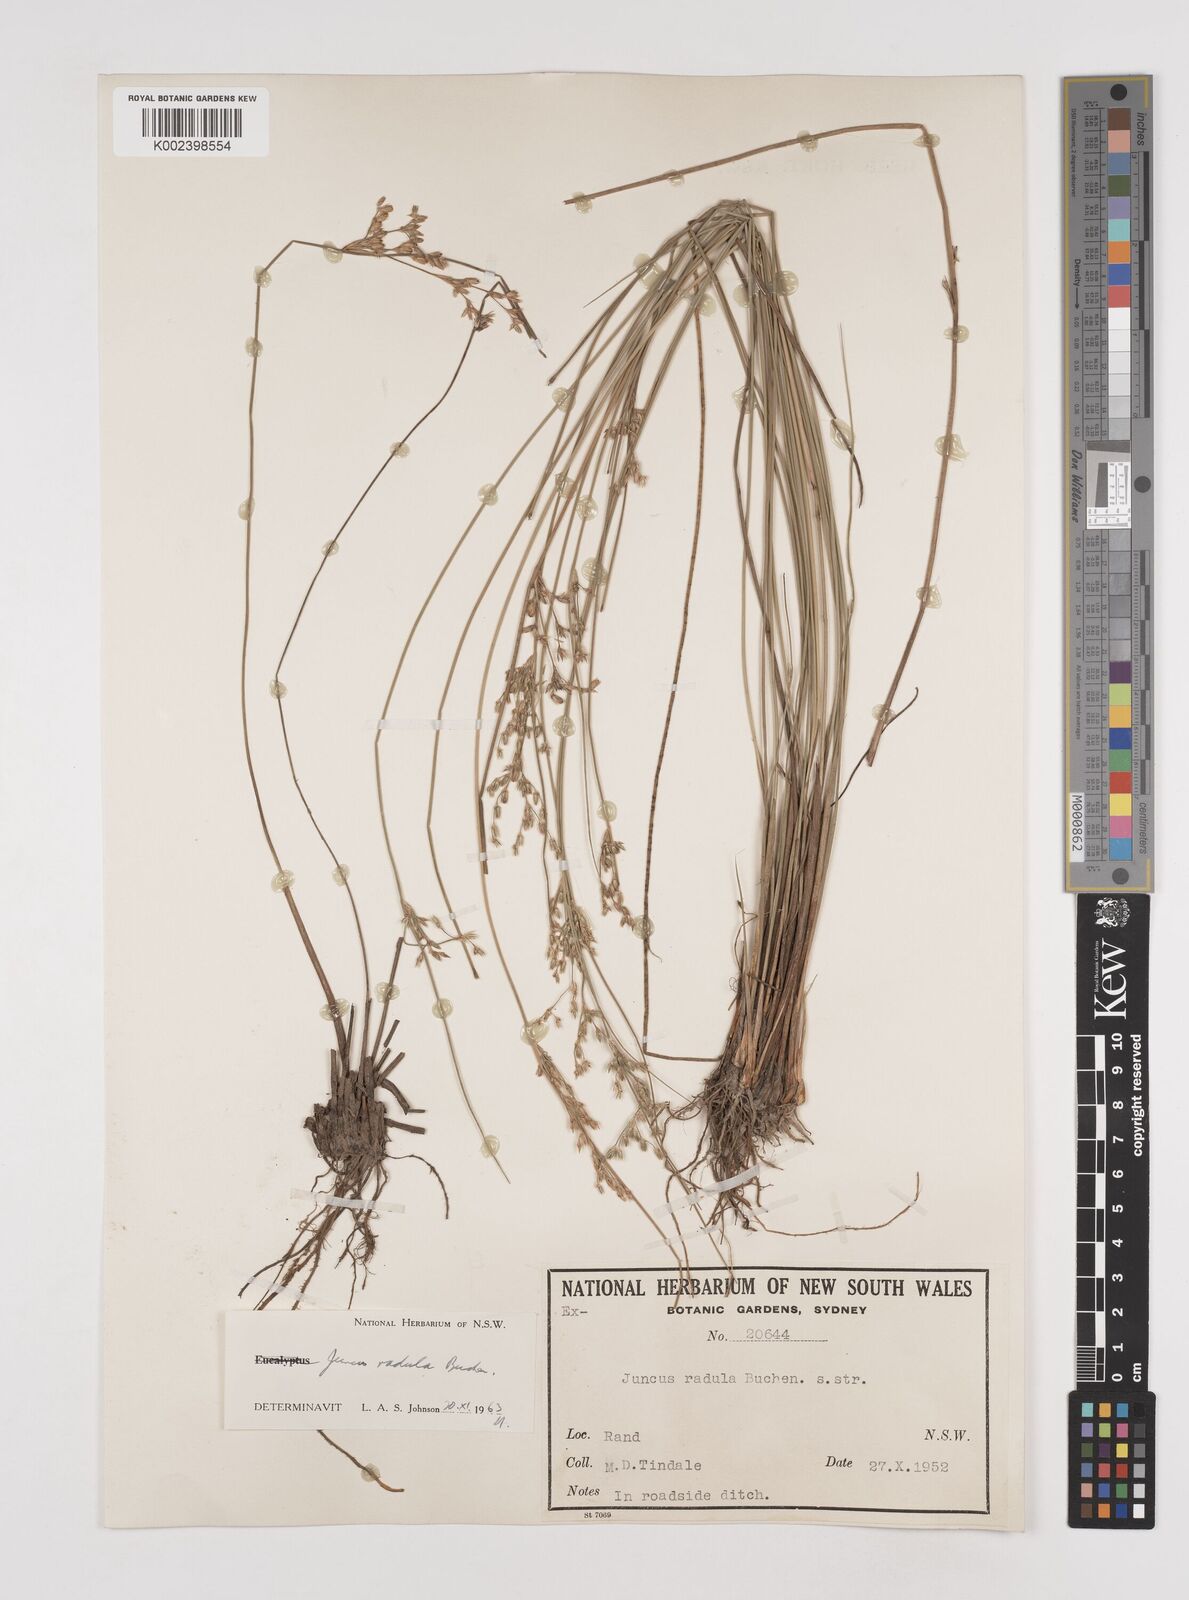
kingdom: Plantae
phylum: Tracheophyta
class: Liliopsida
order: Poales
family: Juncaceae
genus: Juncus
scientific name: Juncus radula
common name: Hoary rush
